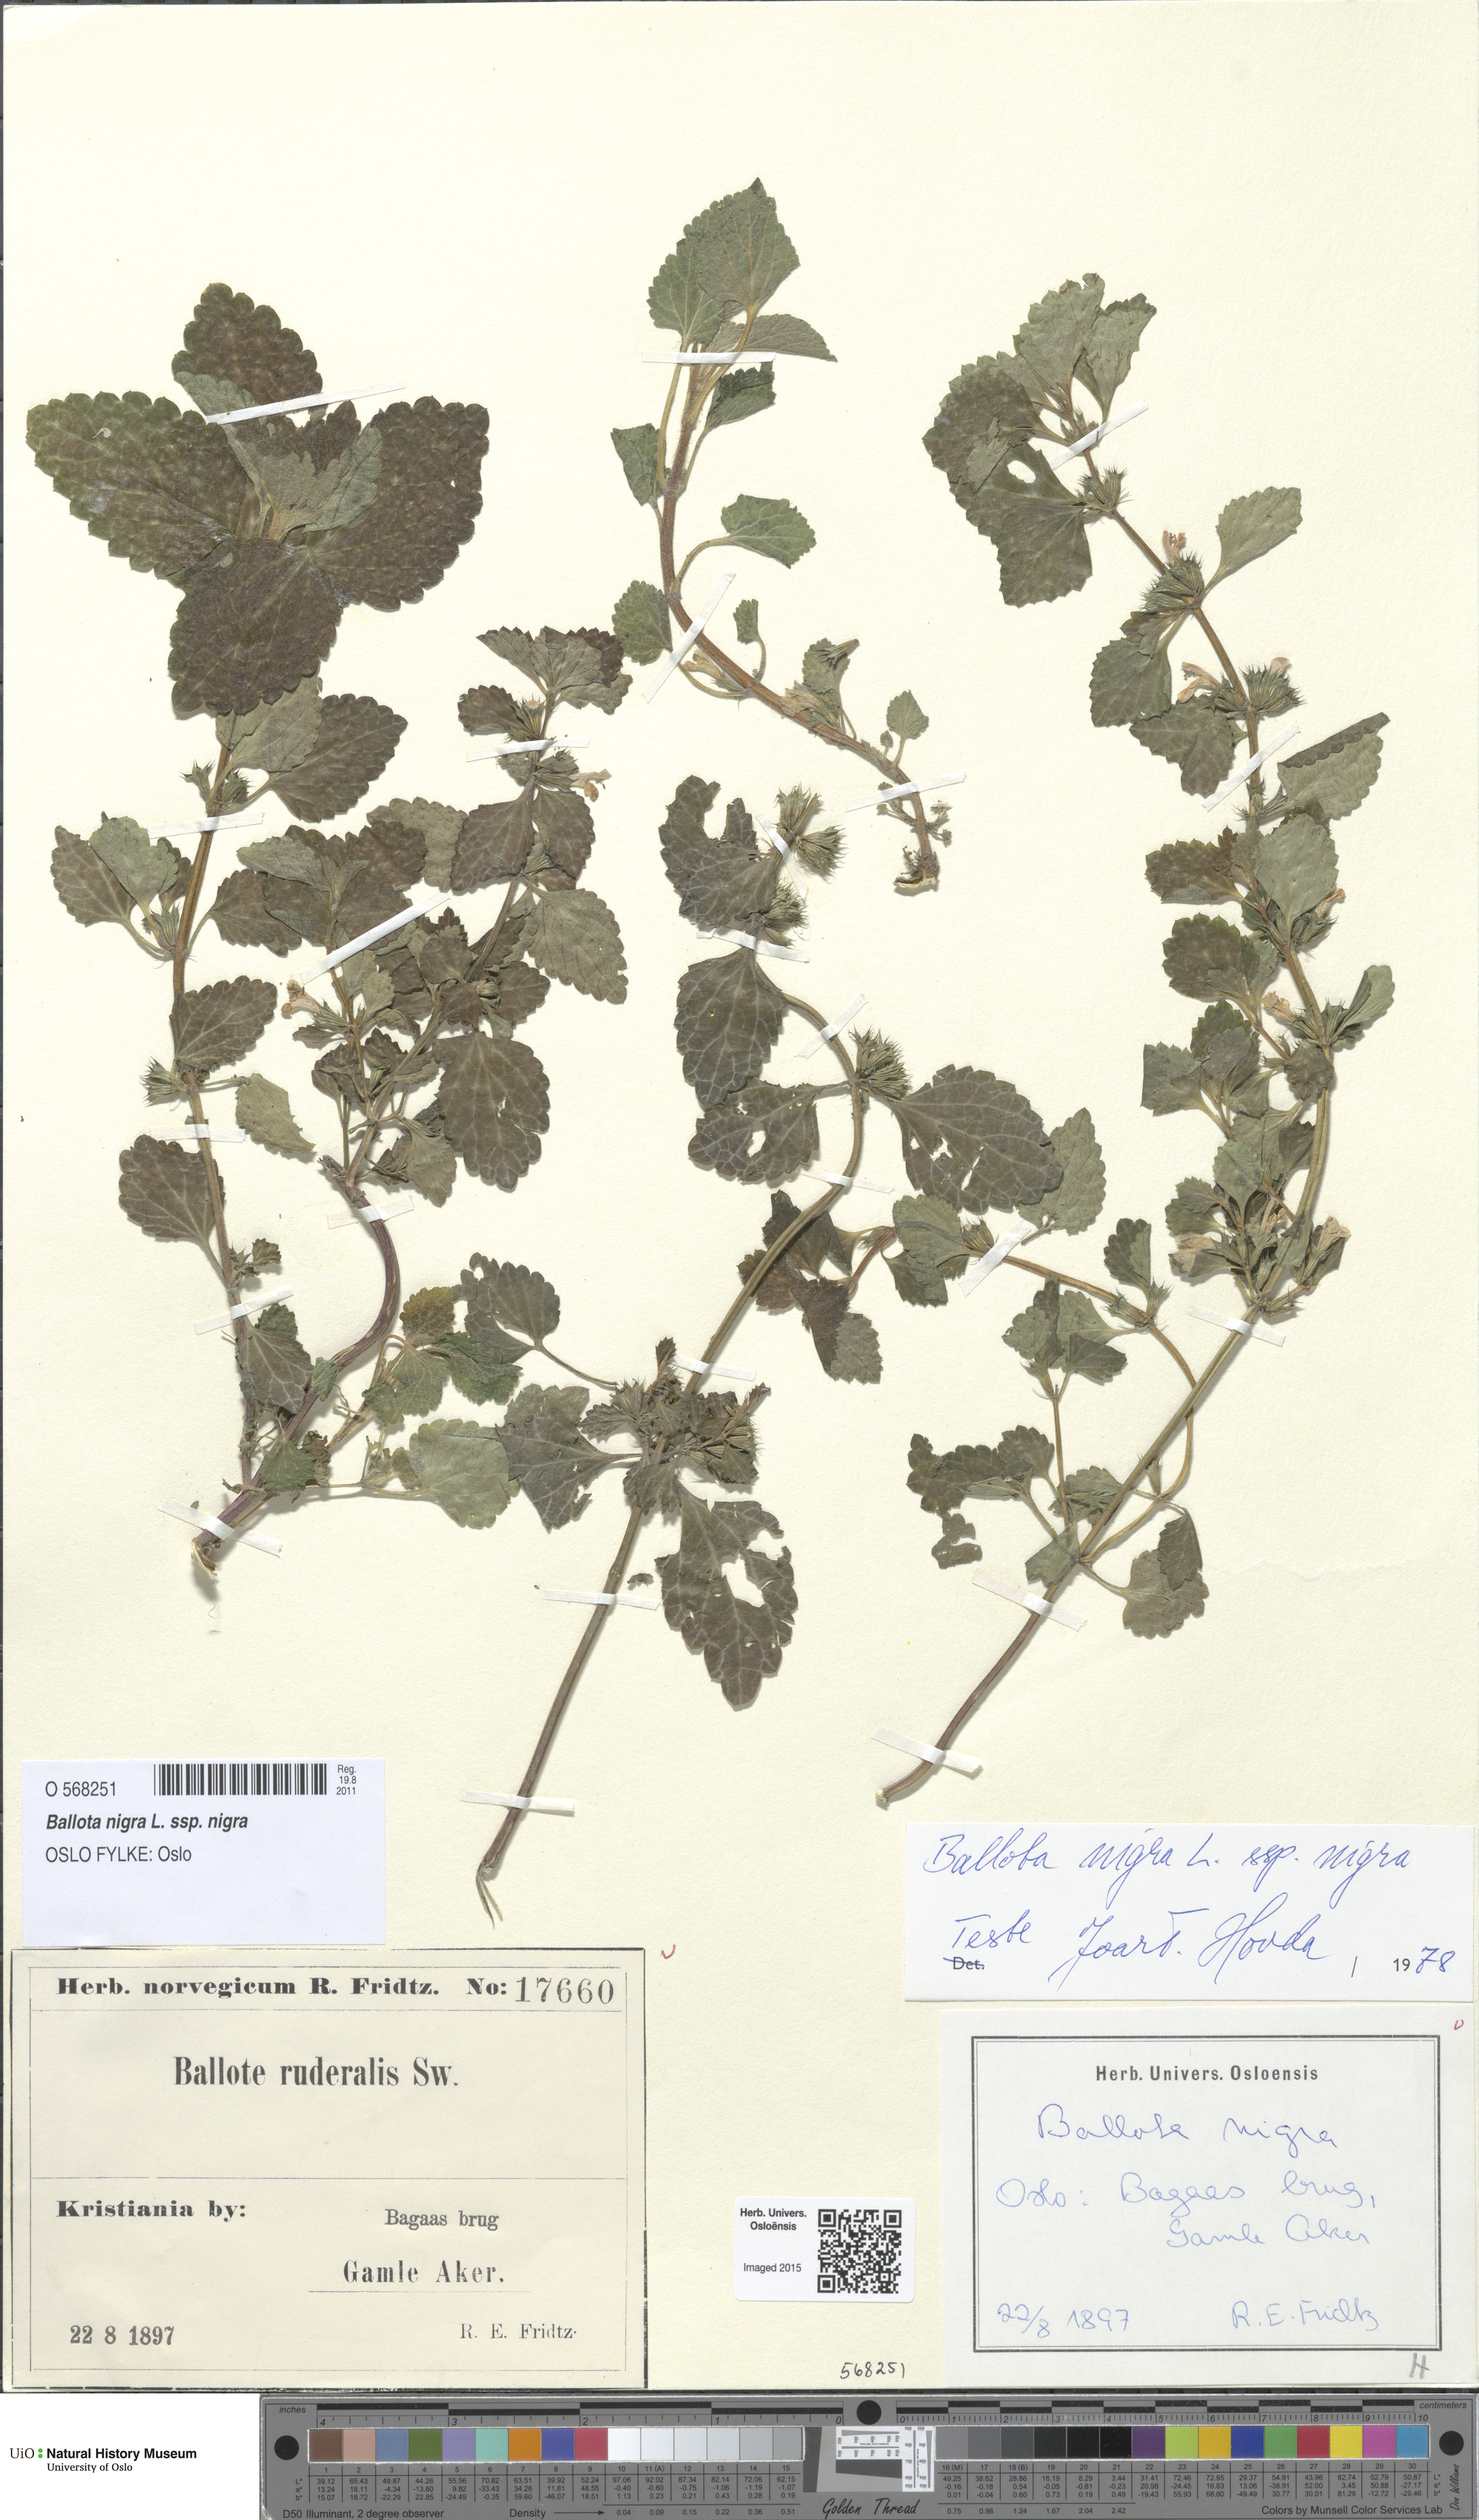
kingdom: Plantae
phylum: Tracheophyta
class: Magnoliopsida
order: Lamiales
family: Lamiaceae
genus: Ballota
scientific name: Ballota nigra
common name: Black horehound
